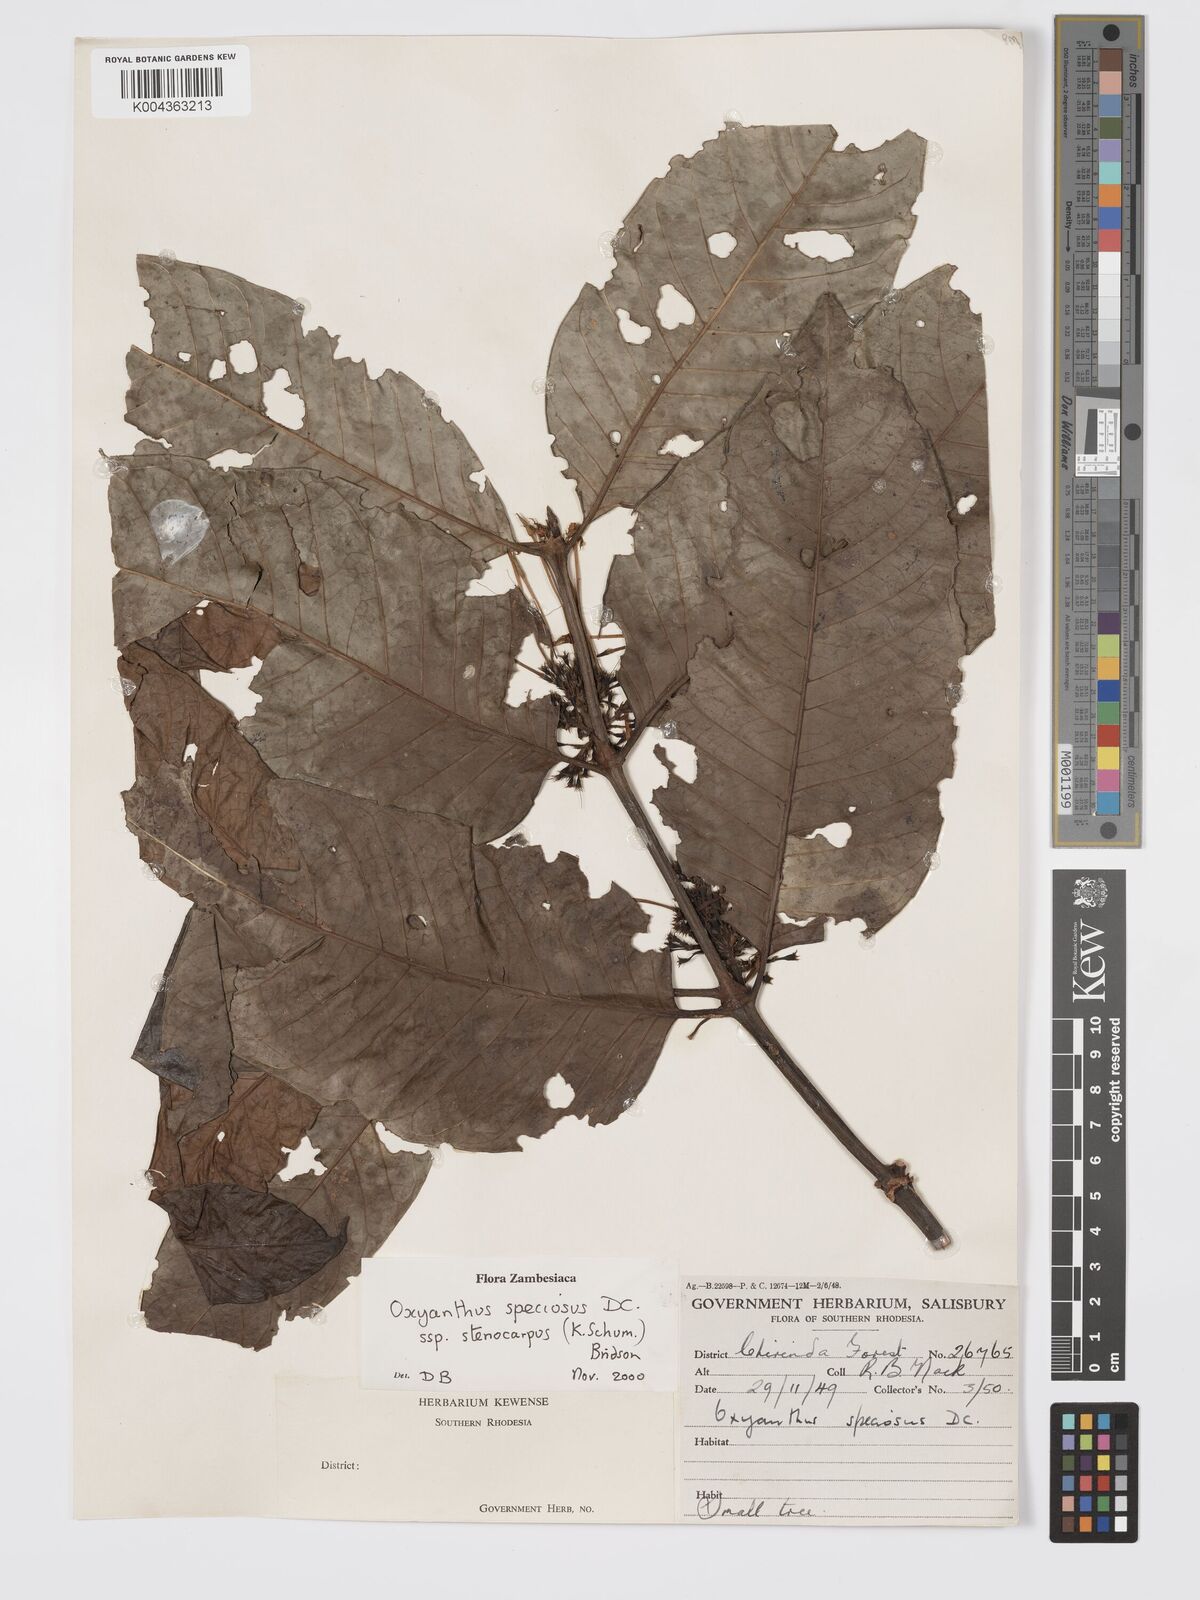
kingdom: Plantae
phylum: Tracheophyta
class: Magnoliopsida
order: Gentianales
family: Rubiaceae
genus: Oxyanthus
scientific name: Oxyanthus speciosus
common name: Whipstick loquat
